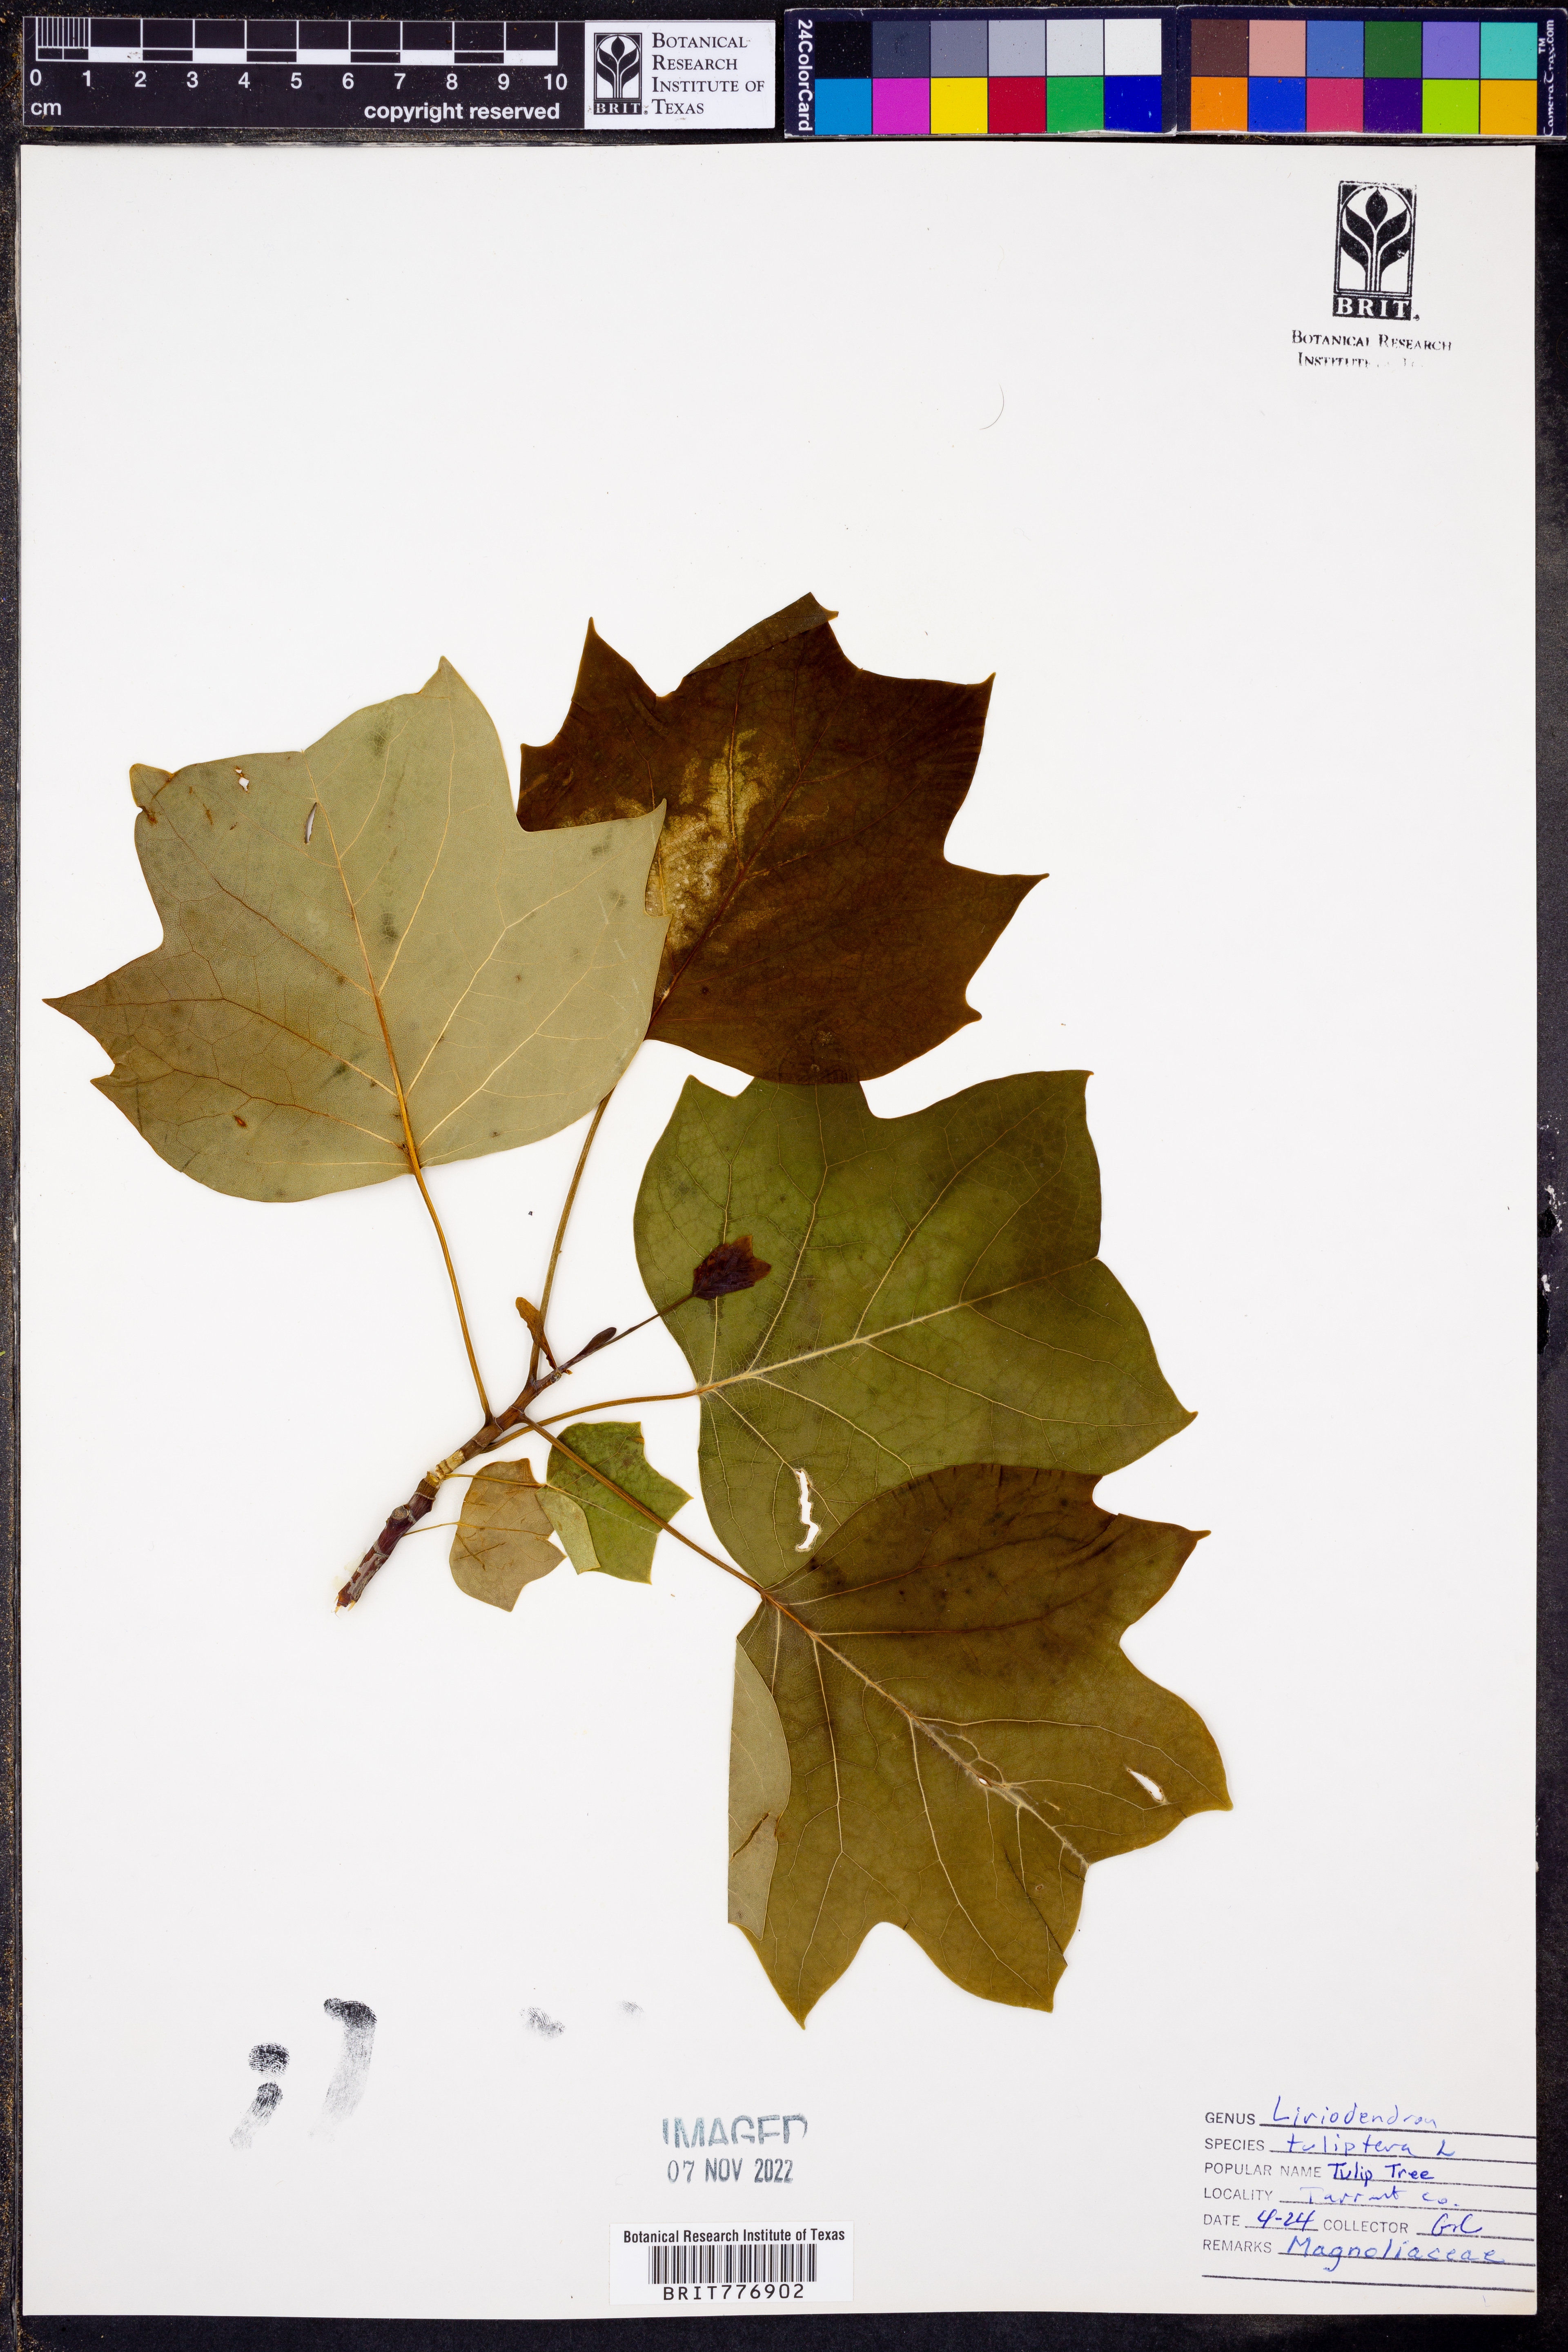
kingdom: Plantae
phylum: Tracheophyta
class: Magnoliopsida
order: Magnoliales
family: Magnoliaceae
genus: Liriodendron
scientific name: Liriodendron tulipifera
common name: Tulip tree
